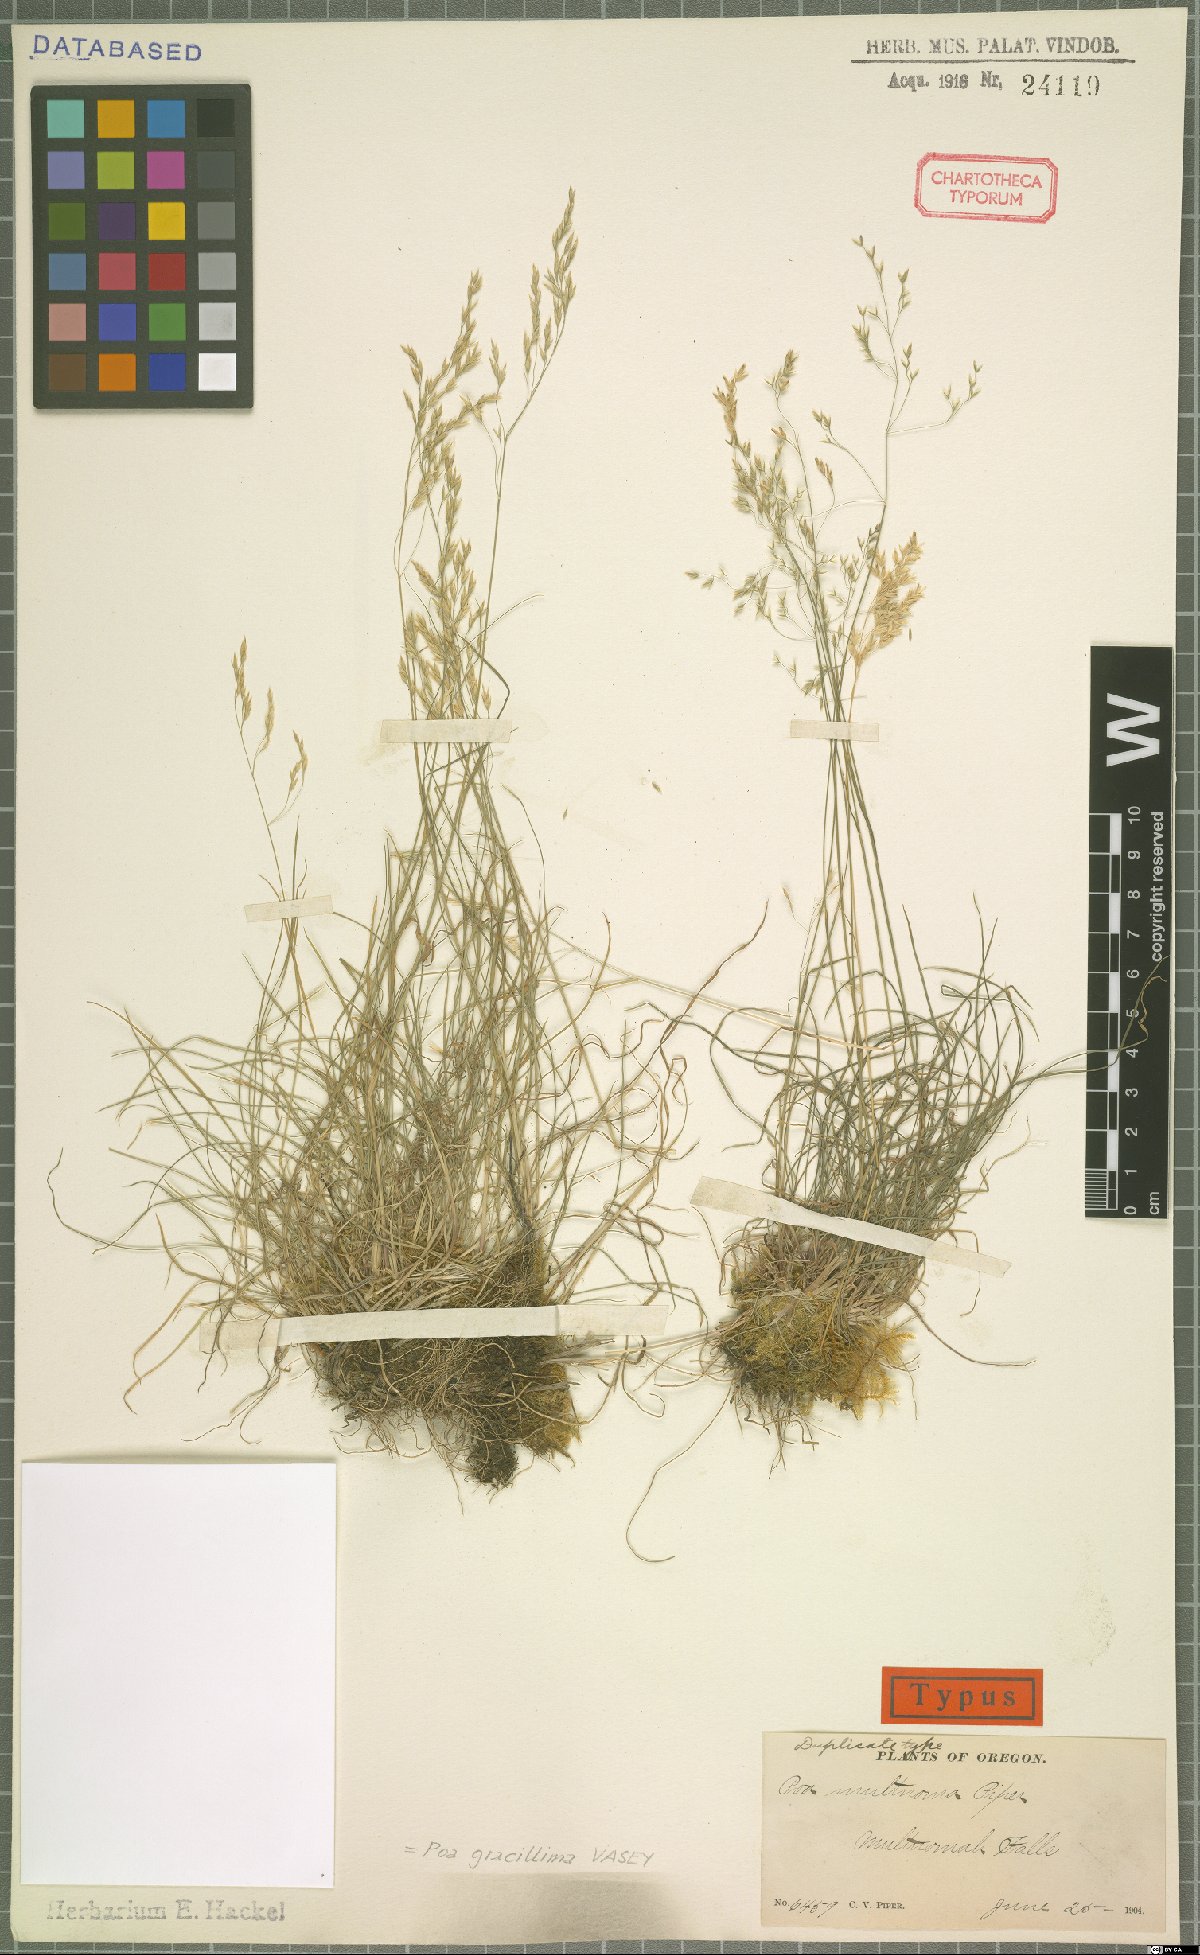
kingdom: Plantae
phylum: Tracheophyta
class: Liliopsida
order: Poales
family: Poaceae
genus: Poa
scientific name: Poa multnomae
